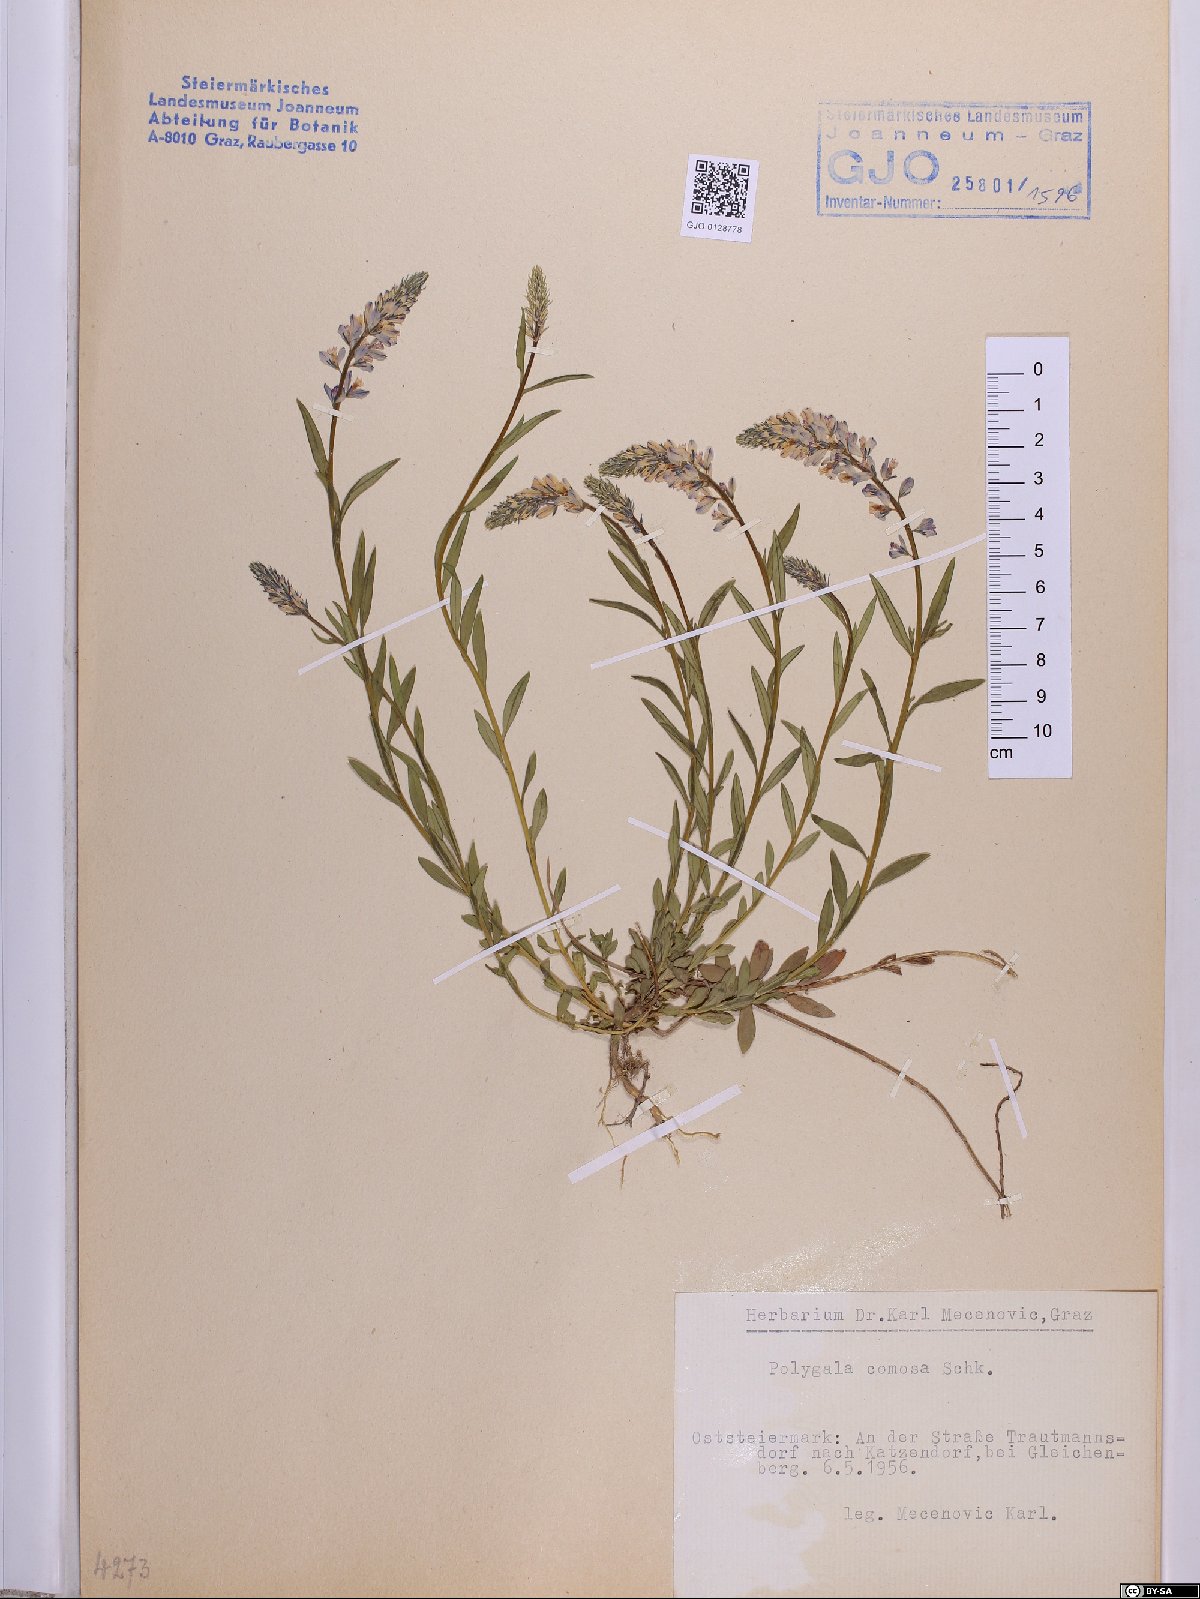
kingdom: Plantae
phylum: Tracheophyta
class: Magnoliopsida
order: Fabales
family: Polygalaceae
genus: Polygala
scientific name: Polygala comosa
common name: Tufted milkwort
